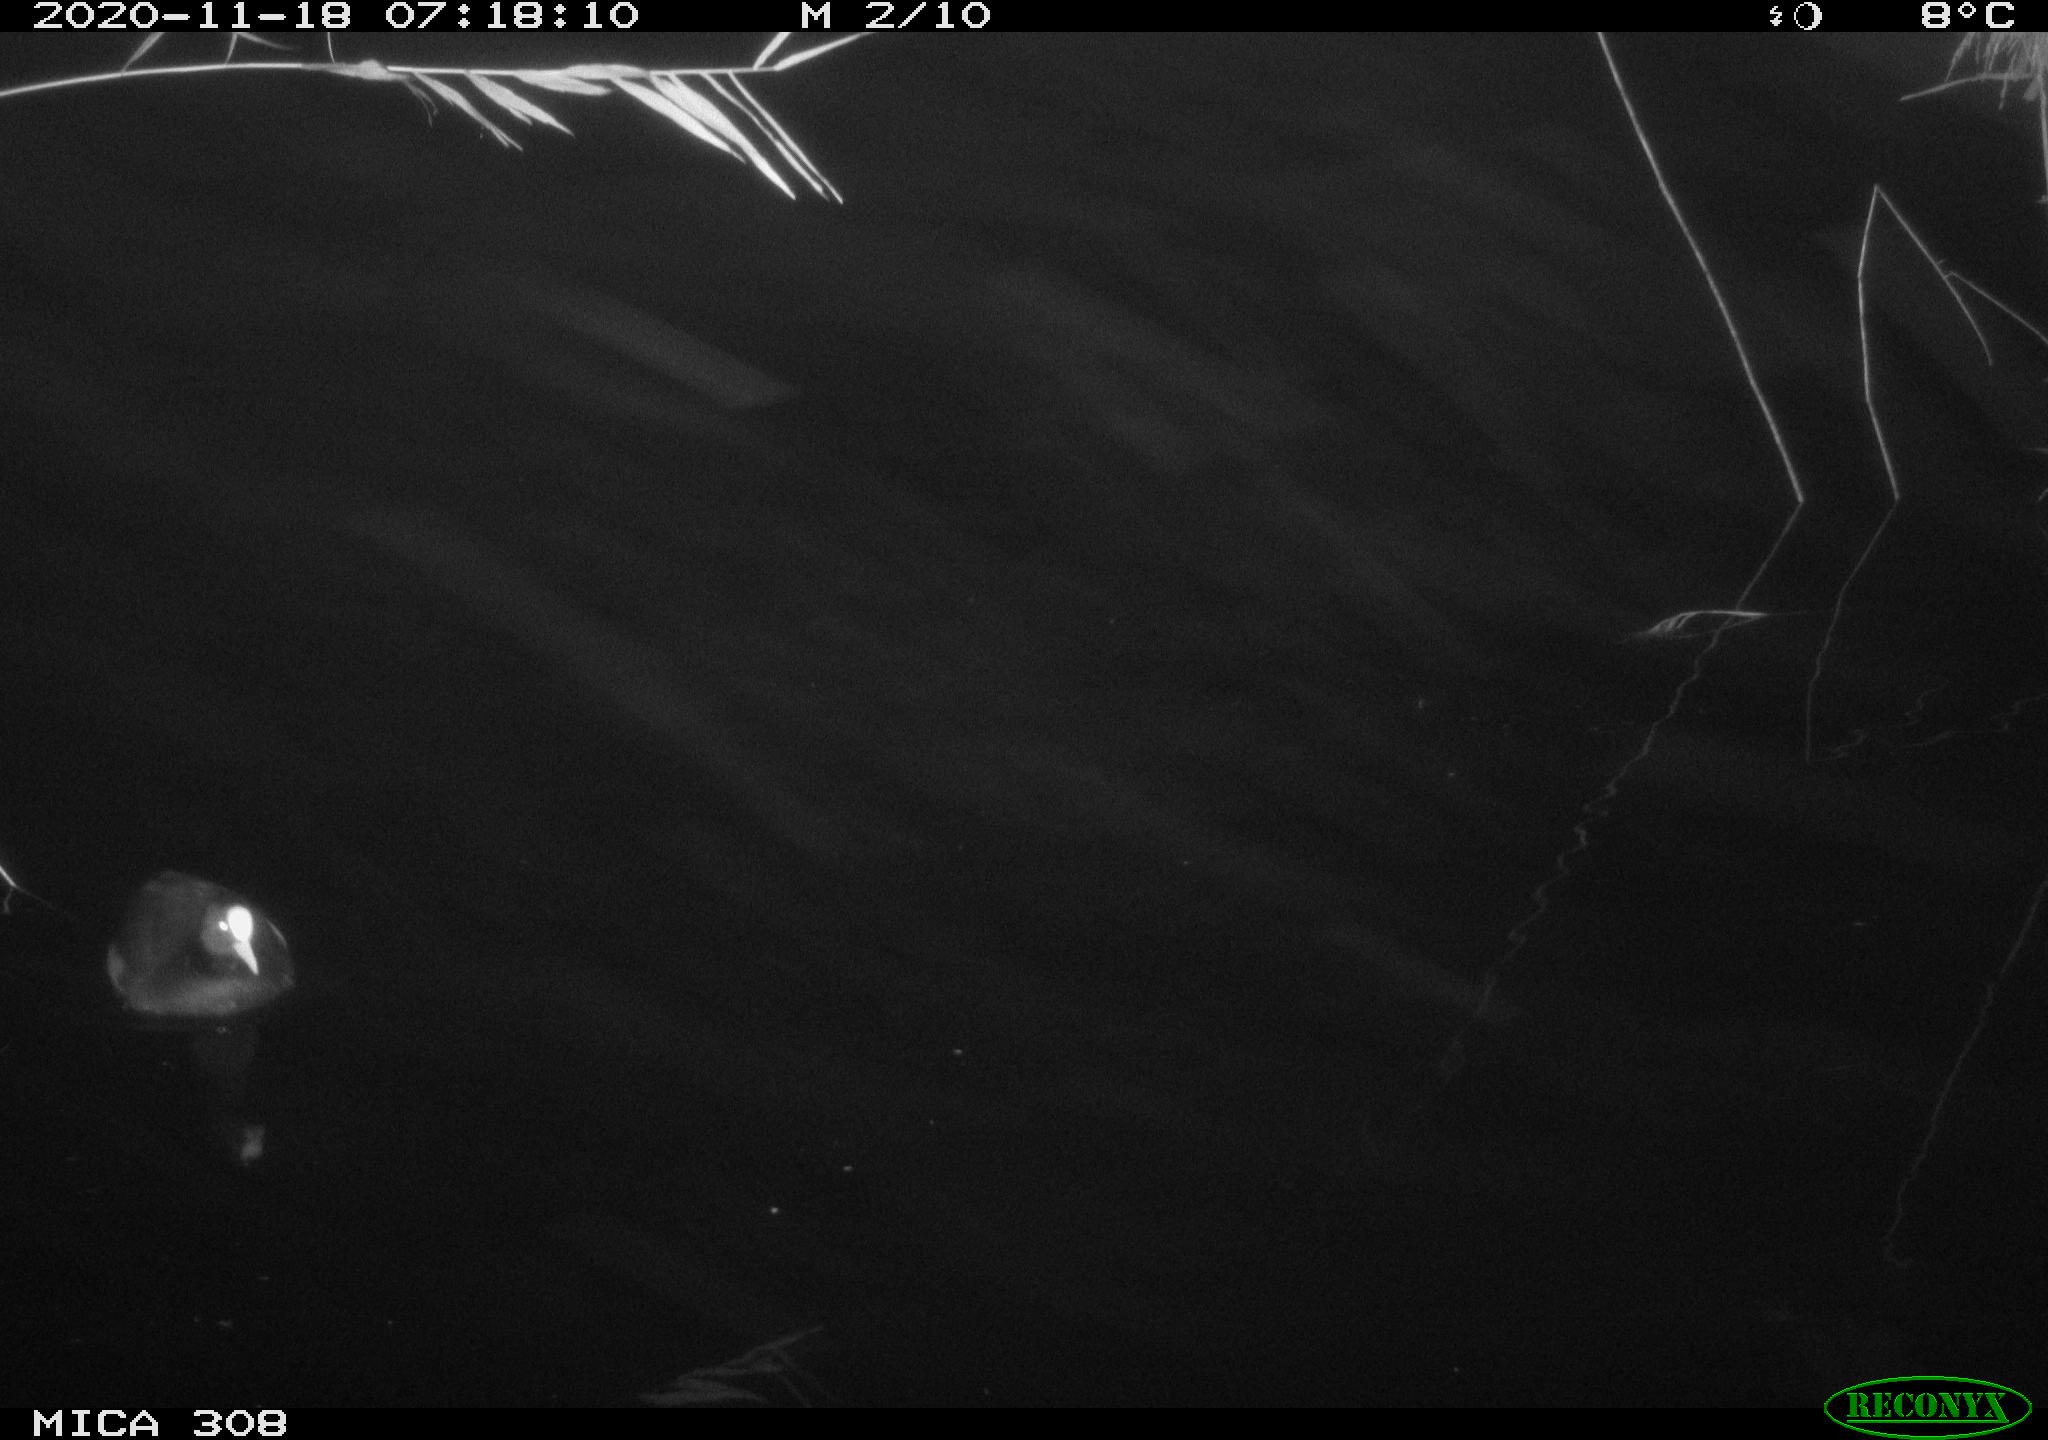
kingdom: Animalia
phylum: Chordata
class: Aves
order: Gruiformes
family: Rallidae
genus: Fulica
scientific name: Fulica atra
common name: Eurasian coot
